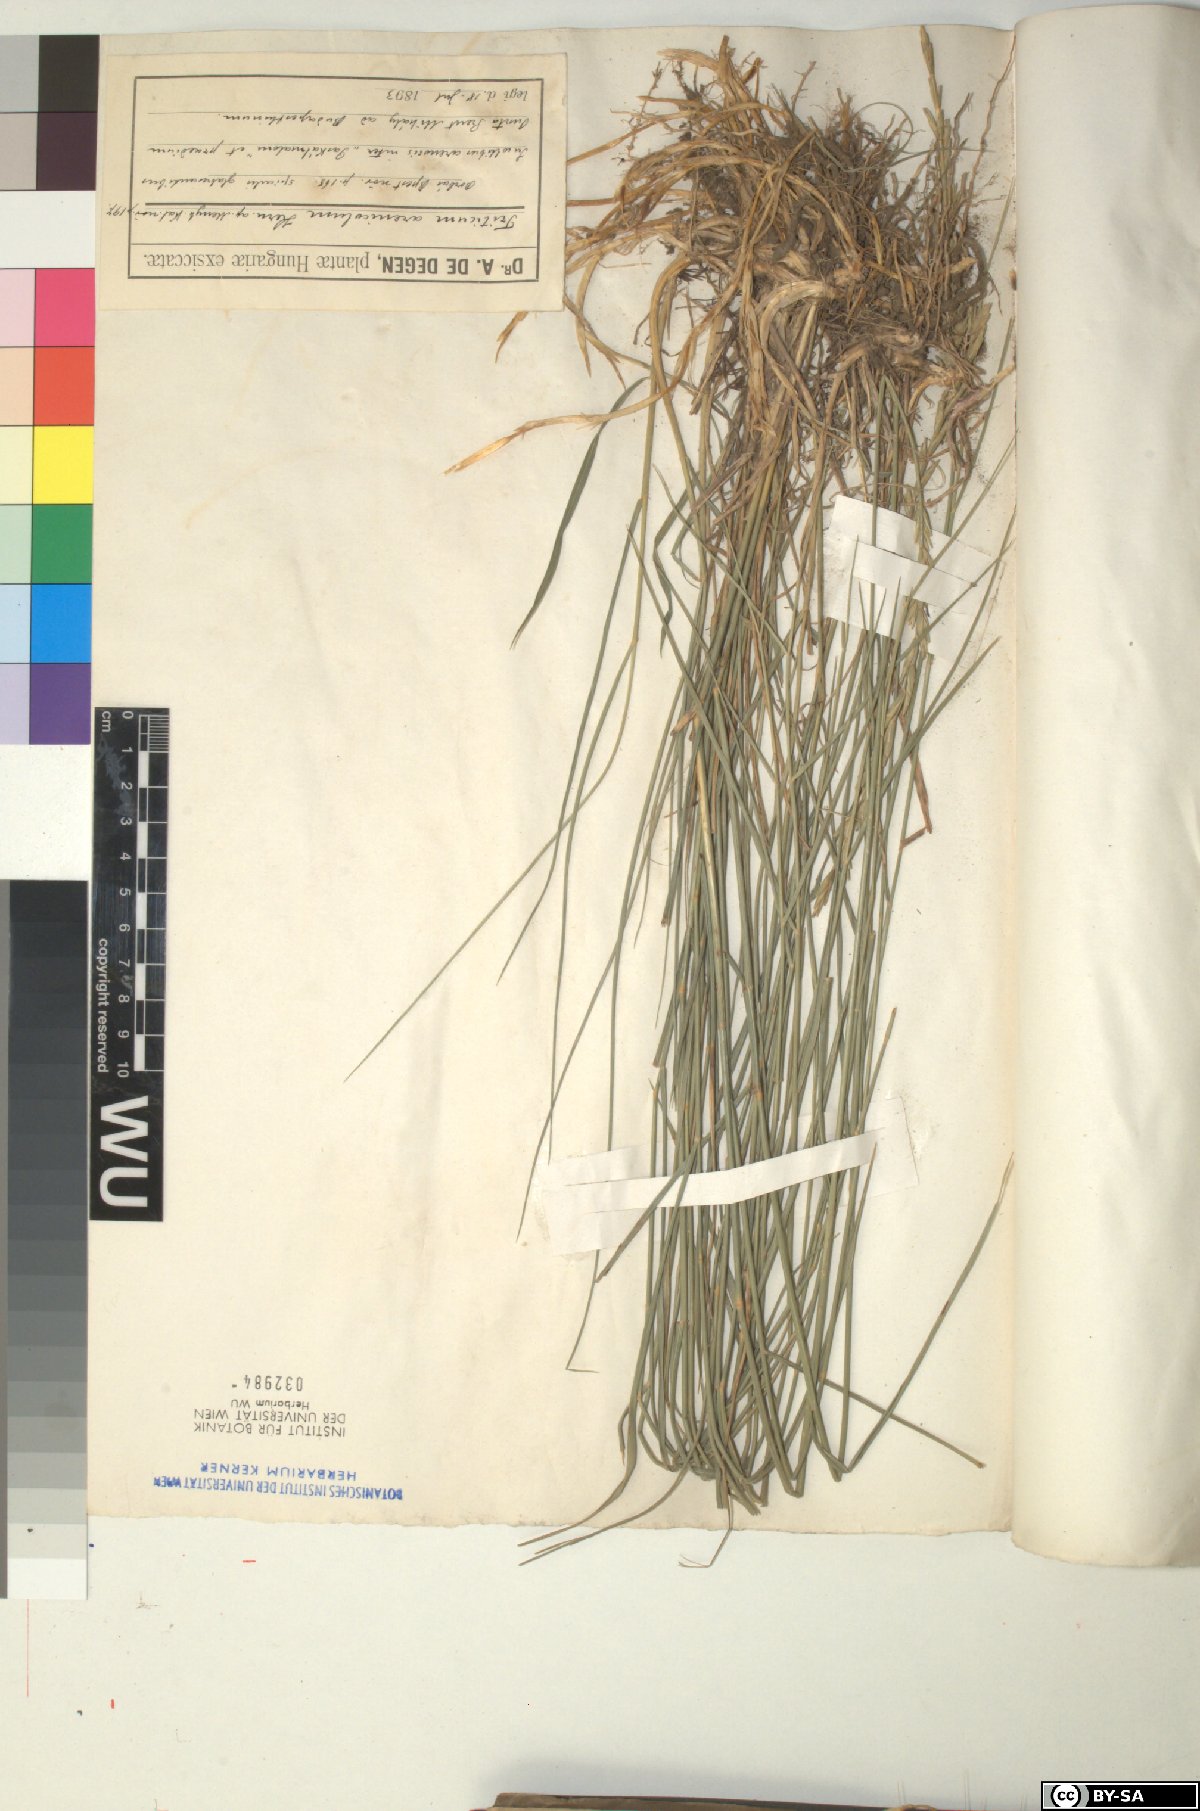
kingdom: Plantae
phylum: Tracheophyta
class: Liliopsida
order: Poales
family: Poaceae
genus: Thinopyrum
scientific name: Thinopyrum intermedium
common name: Intermediate wheatgrass
